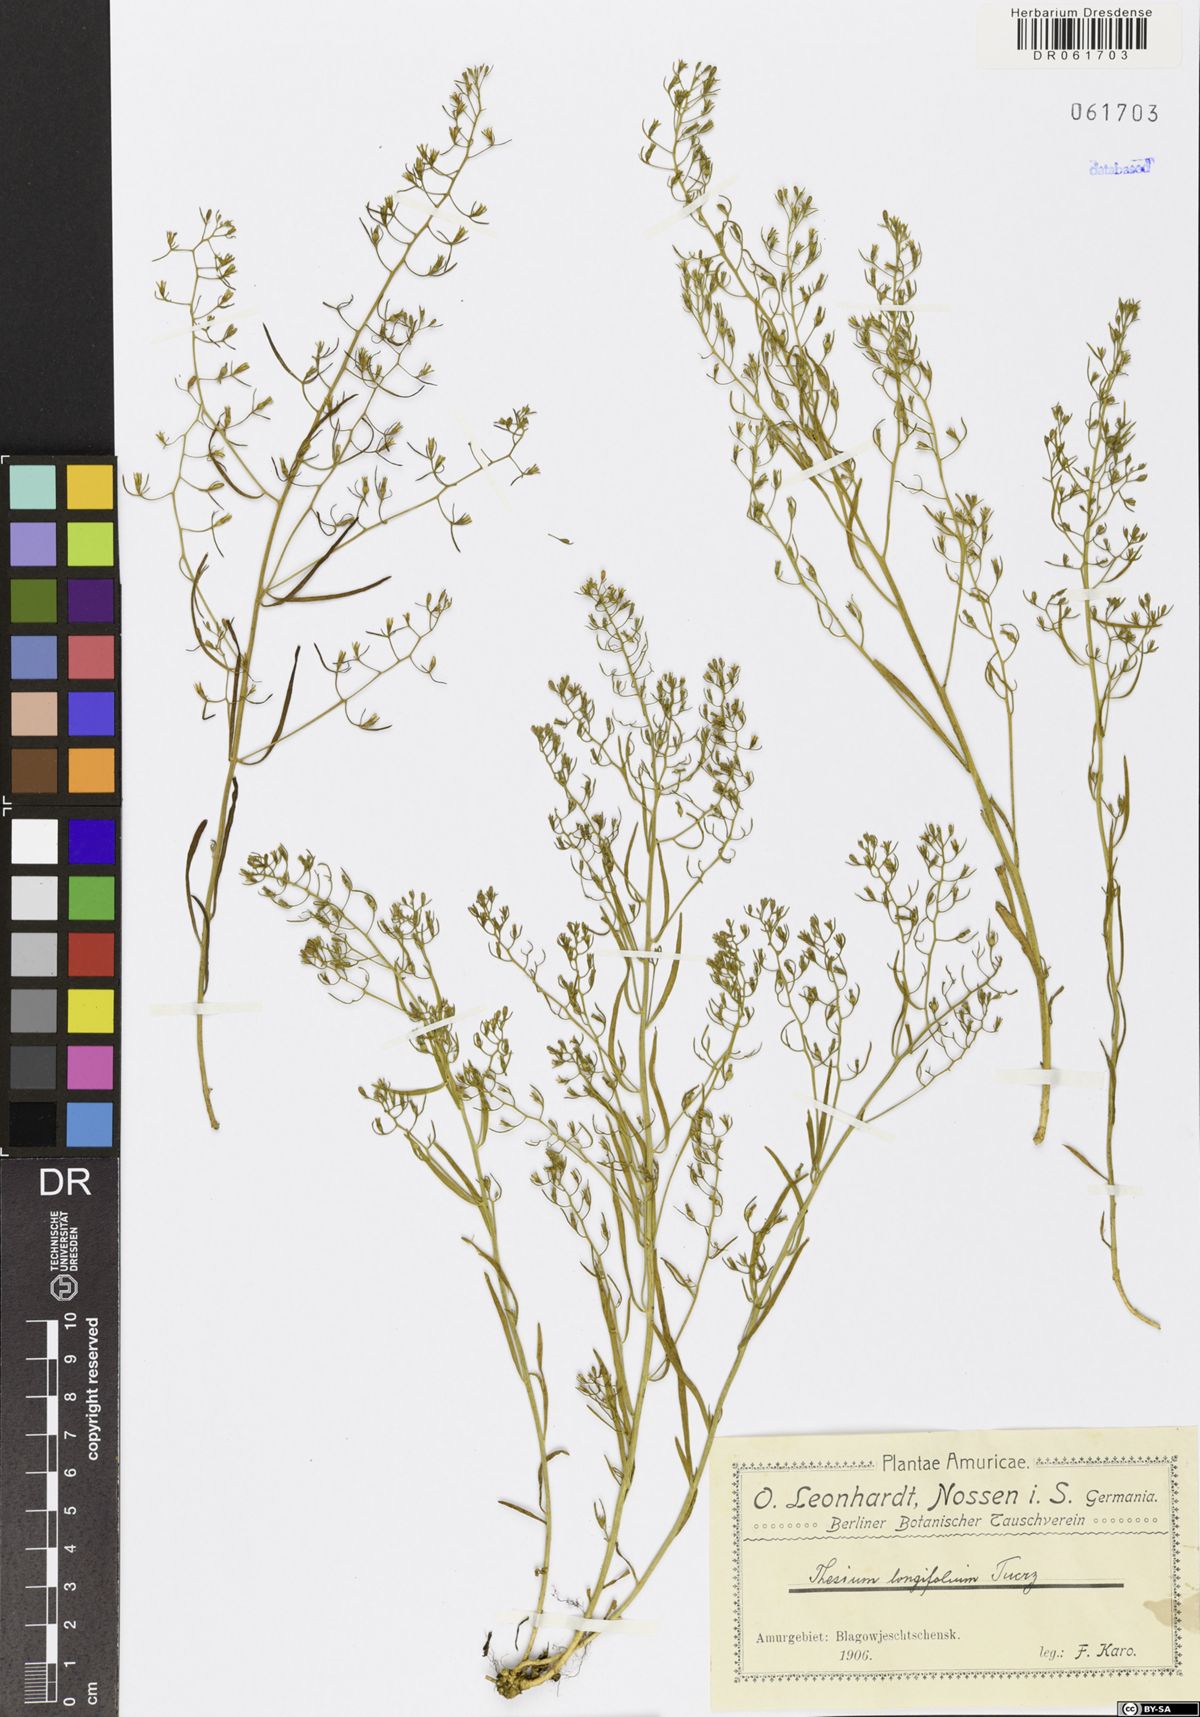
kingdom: Plantae
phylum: Tracheophyta
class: Magnoliopsida
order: Santalales
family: Thesiaceae
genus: Thesium
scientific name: Thesium longifolium
